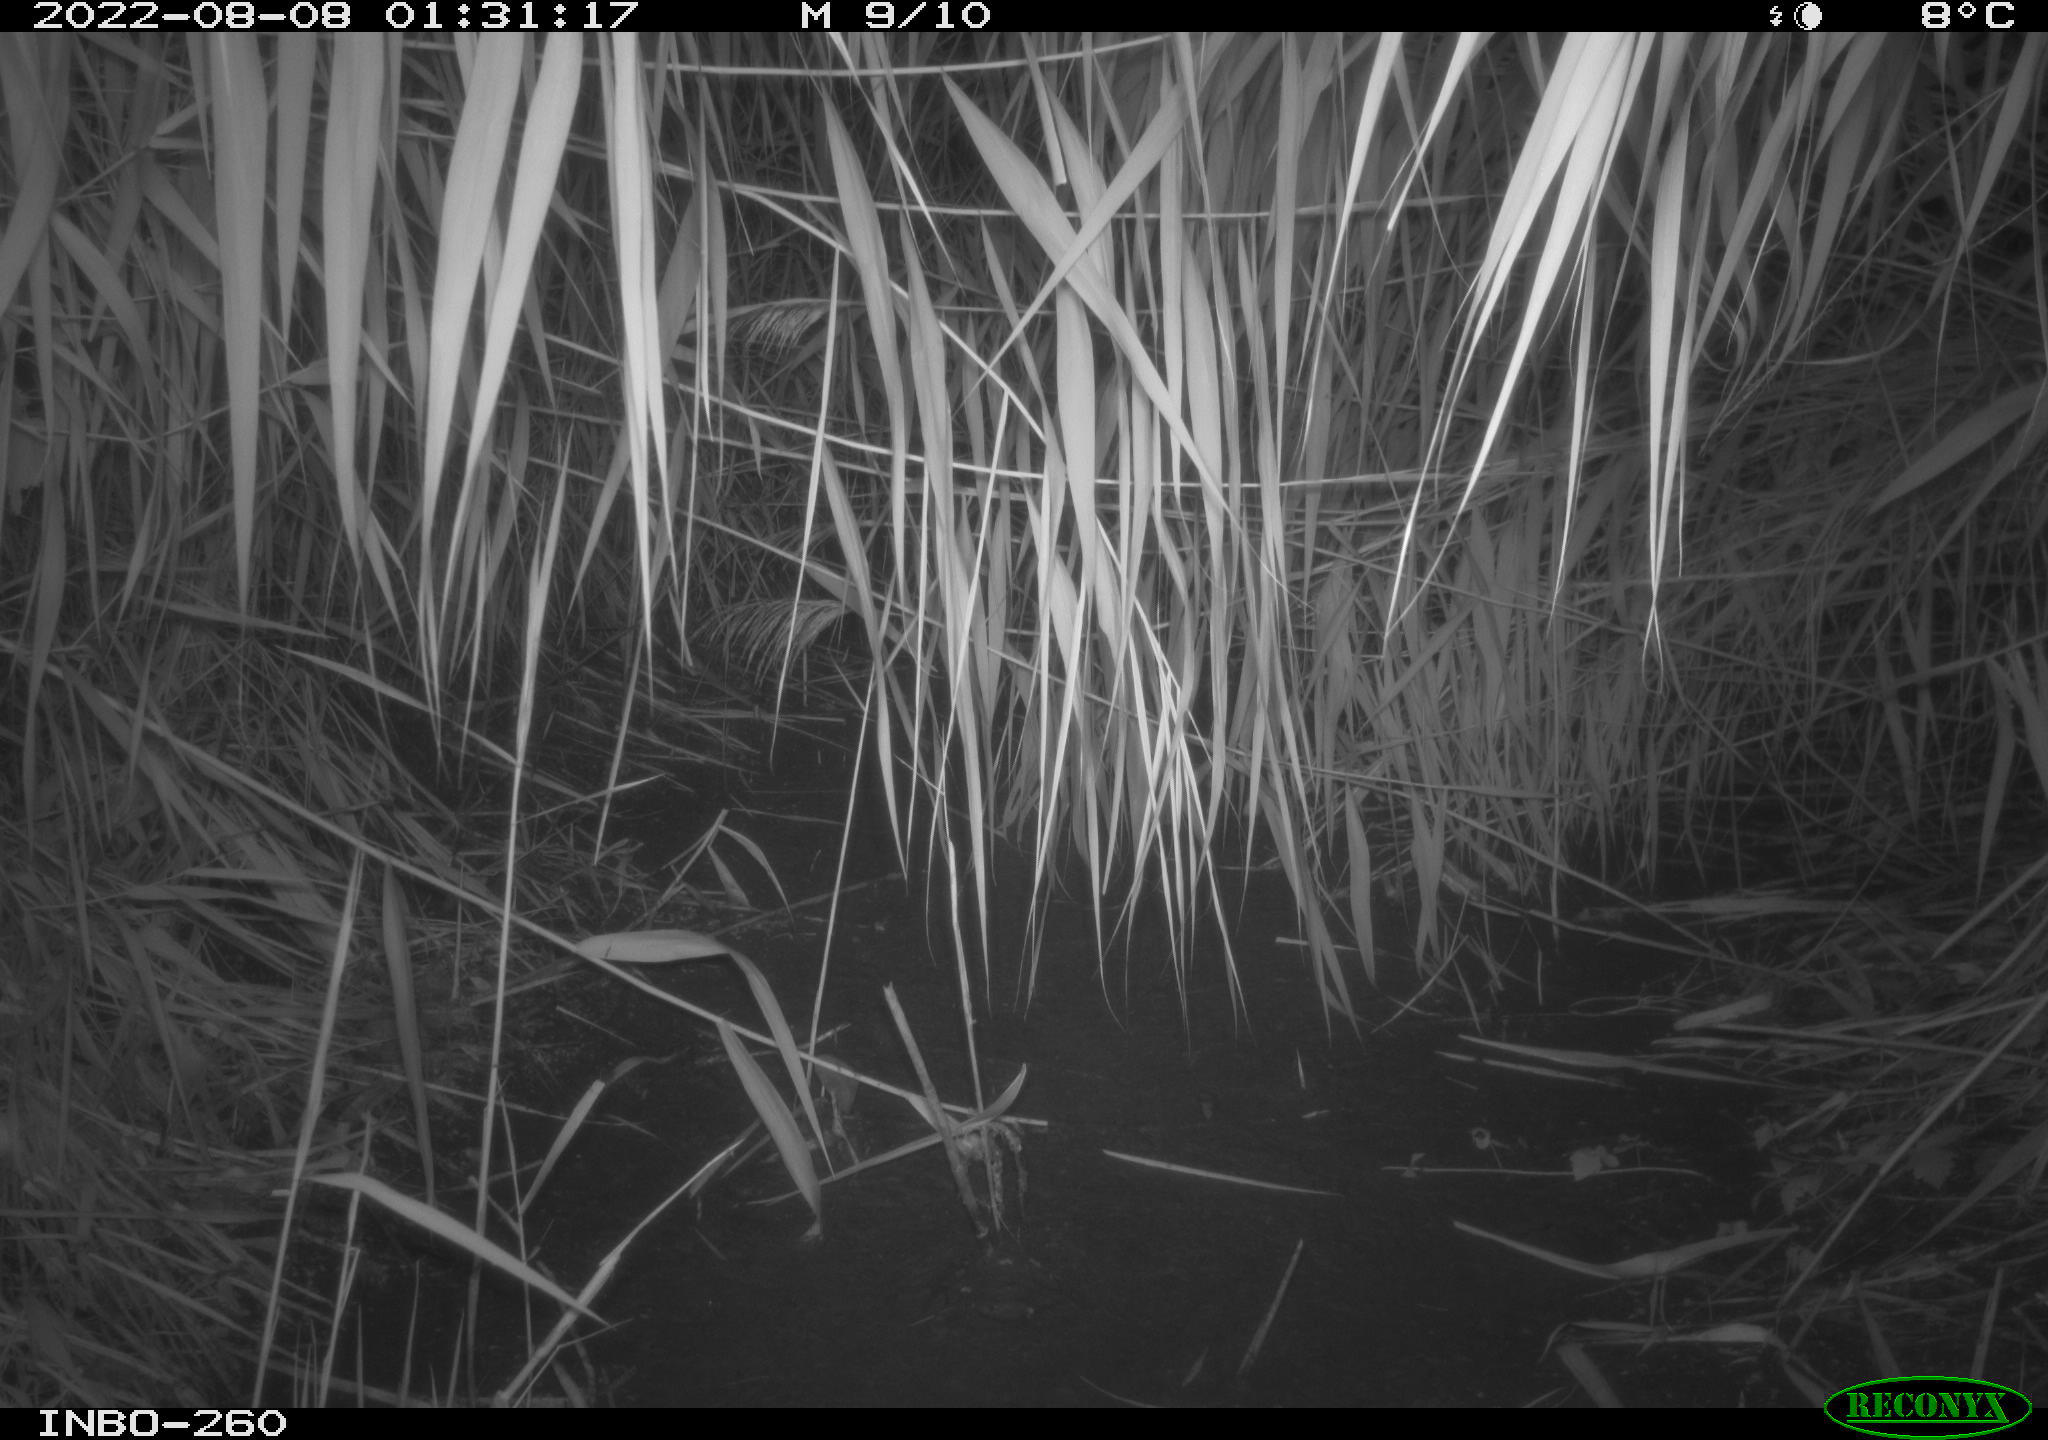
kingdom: Animalia
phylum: Chordata
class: Mammalia
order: Carnivora
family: Mustelidae
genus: Martes
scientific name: Martes
